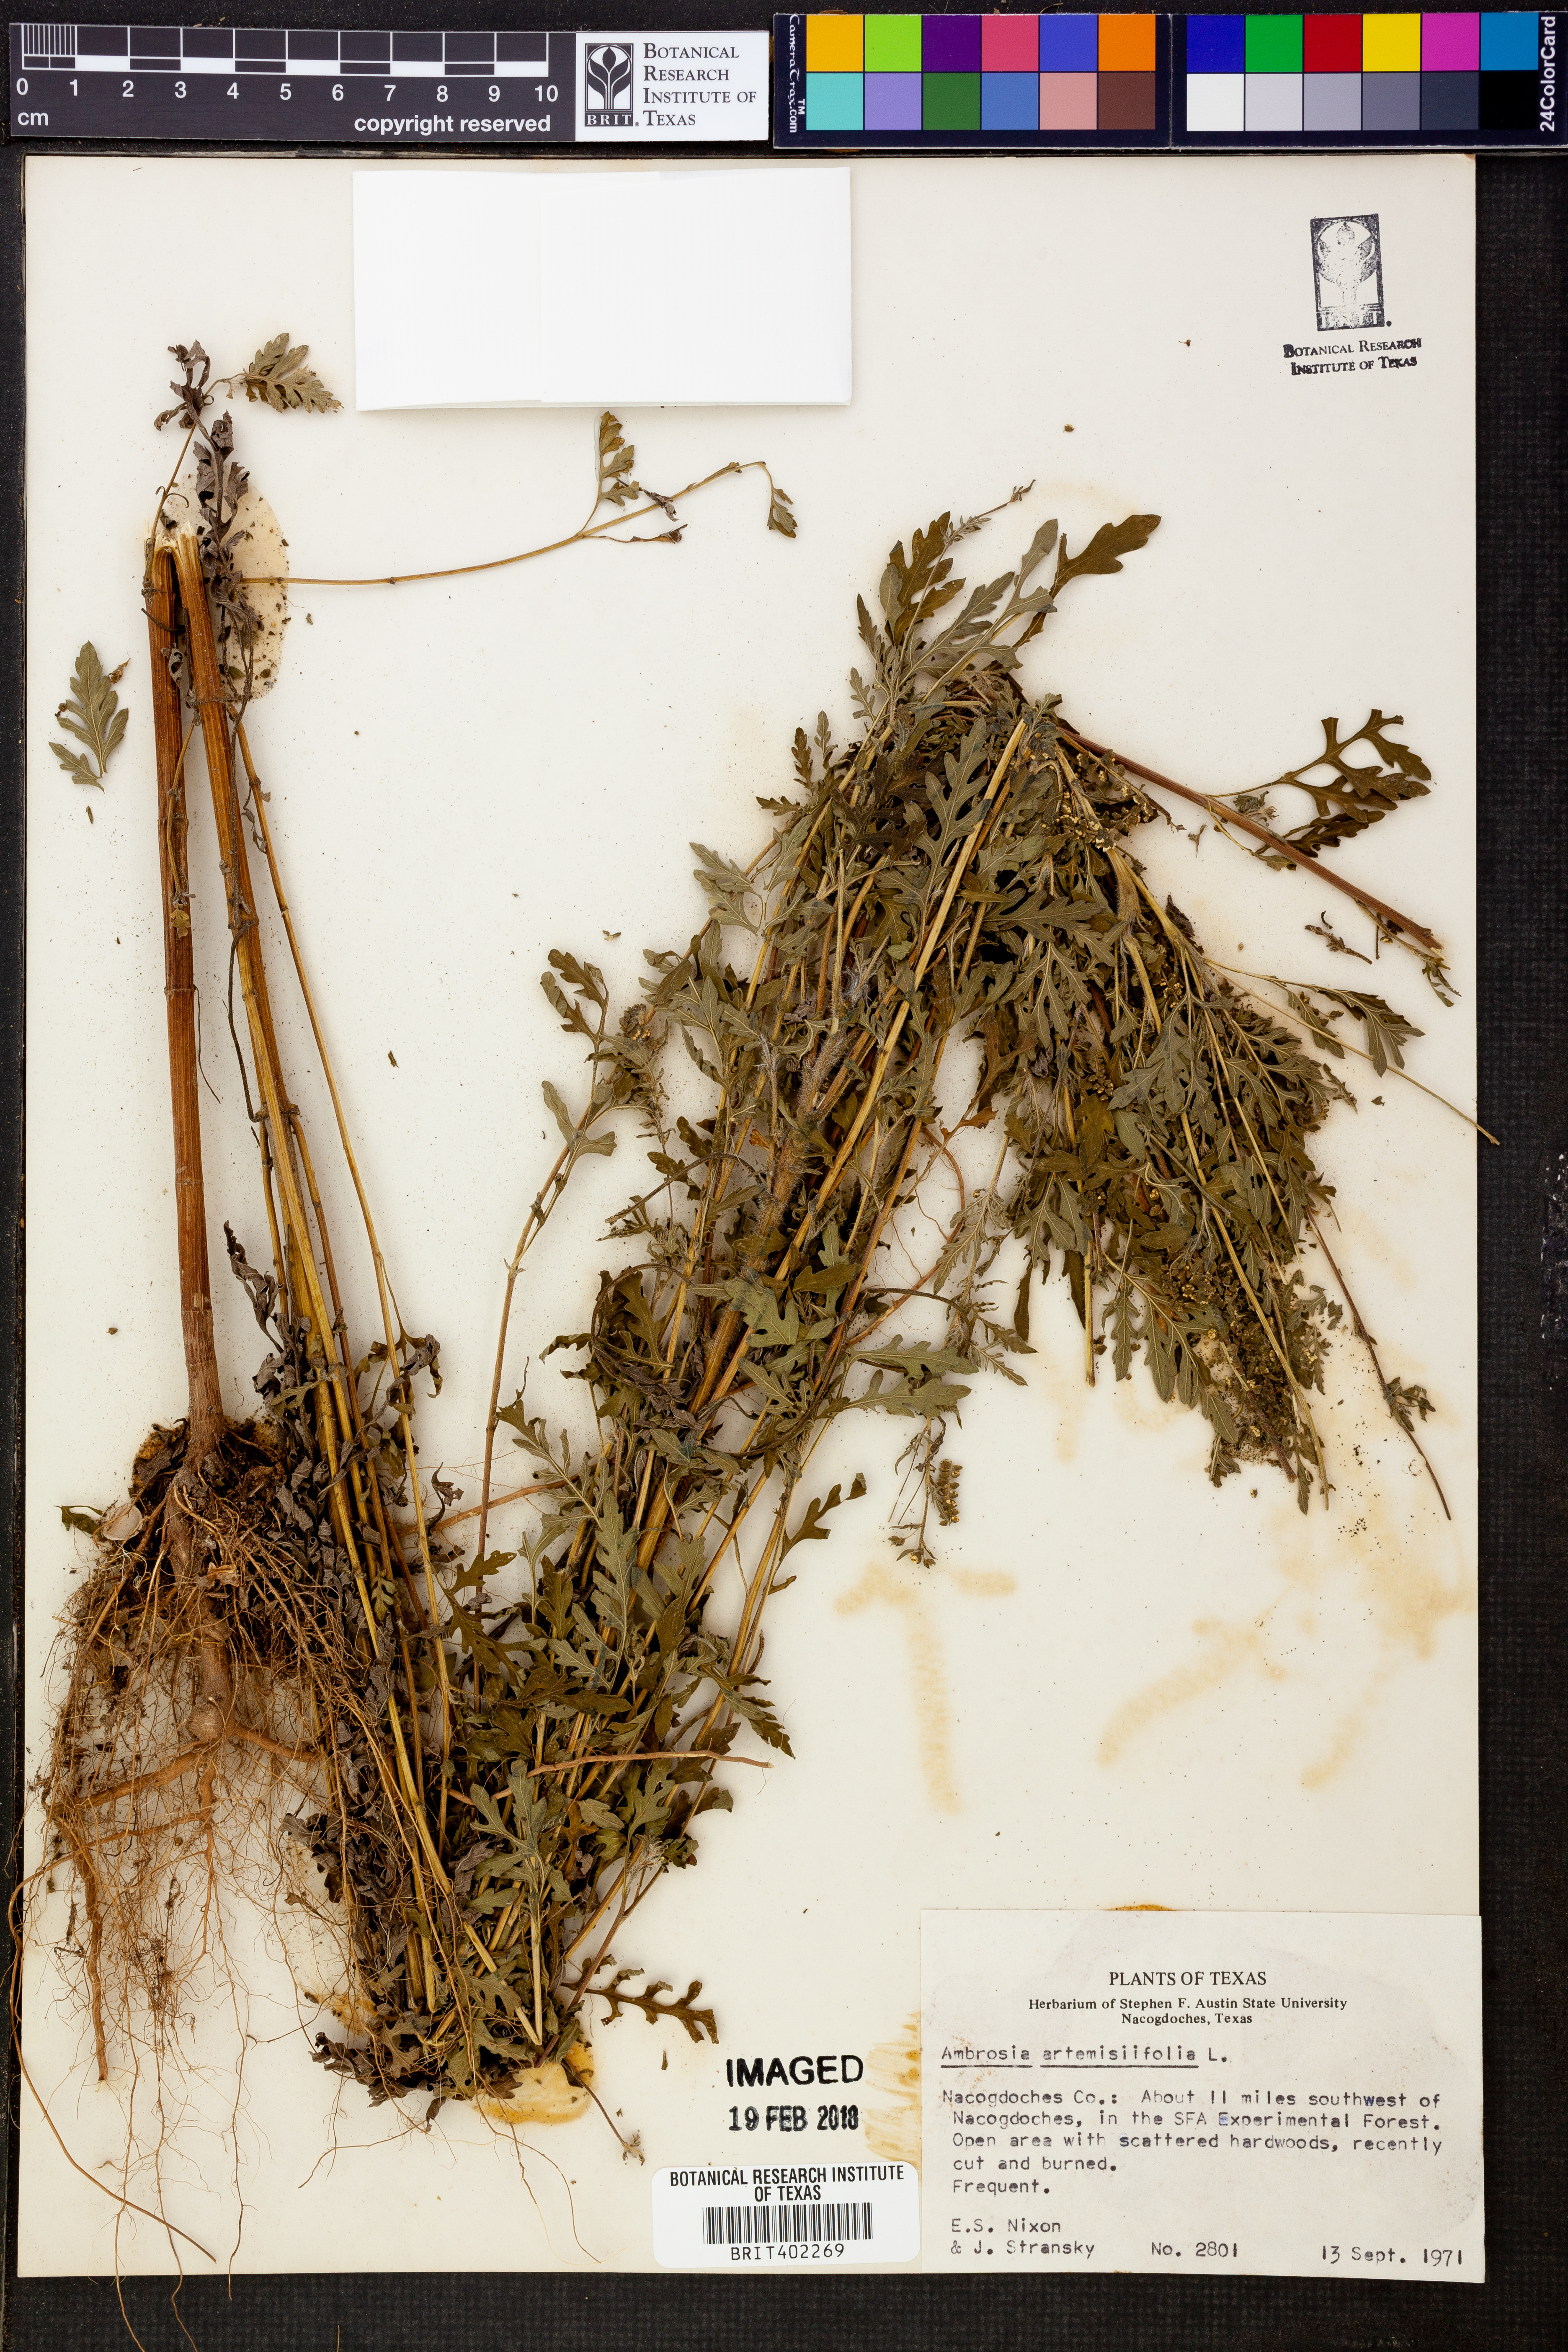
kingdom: Plantae
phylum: Tracheophyta
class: Magnoliopsida
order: Asterales
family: Asteraceae
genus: Ambrosia
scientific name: Ambrosia artemisiifolia
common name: Annual ragweed
